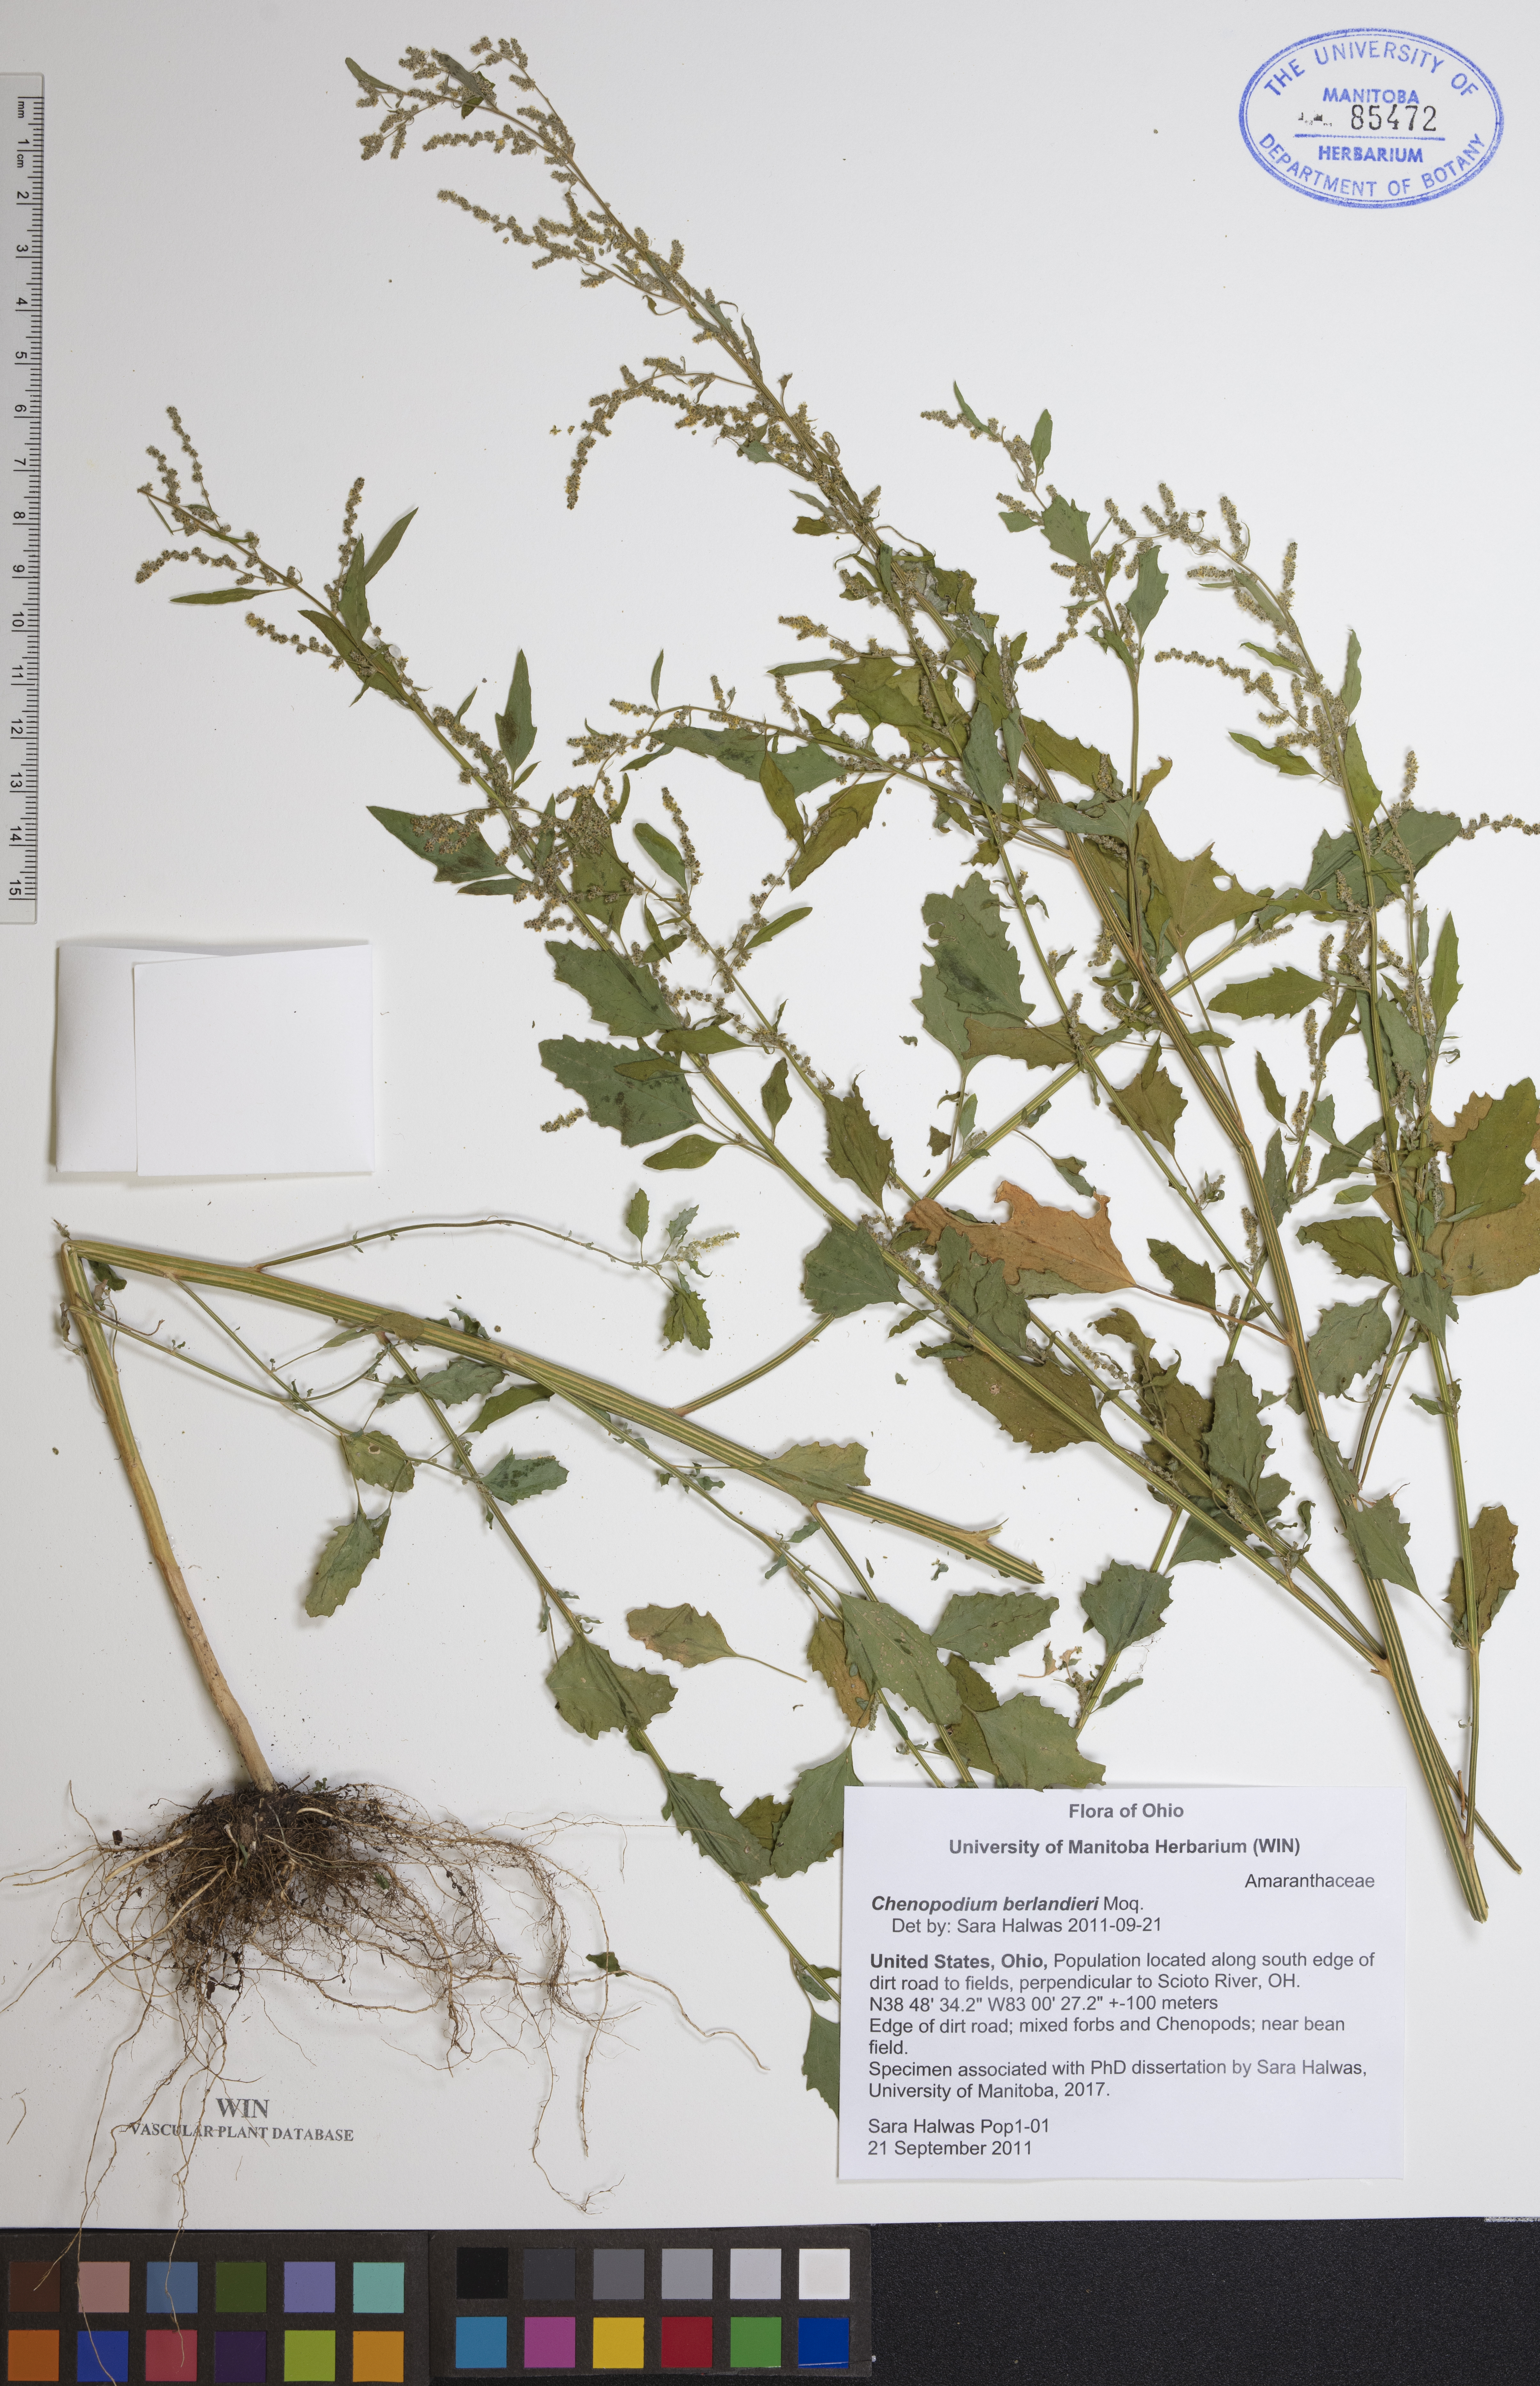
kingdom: Plantae
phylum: Tracheophyta
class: Magnoliopsida
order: Caryophyllales
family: Amaranthaceae
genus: Chenopodium
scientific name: Chenopodium berlandieri
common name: Pit-seed goosefoot
